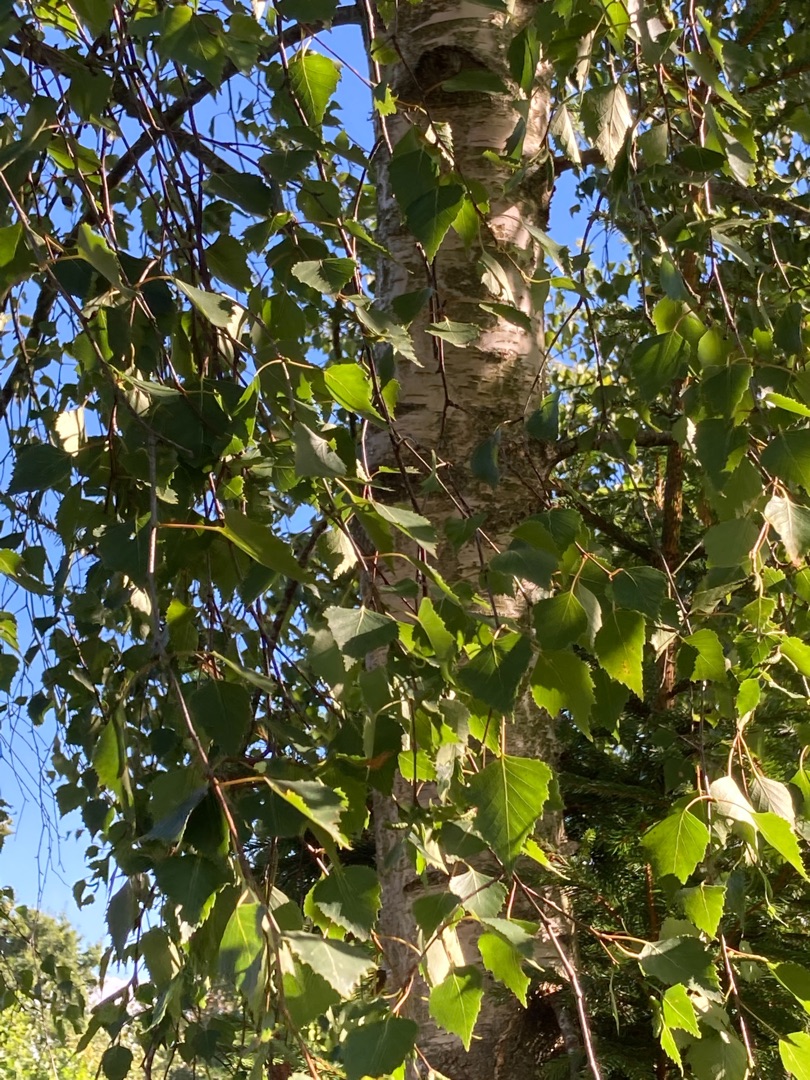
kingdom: Plantae
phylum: Tracheophyta
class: Magnoliopsida
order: Fagales
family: Betulaceae
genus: Betula
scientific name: Betula pendula
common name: Vorte-birk
